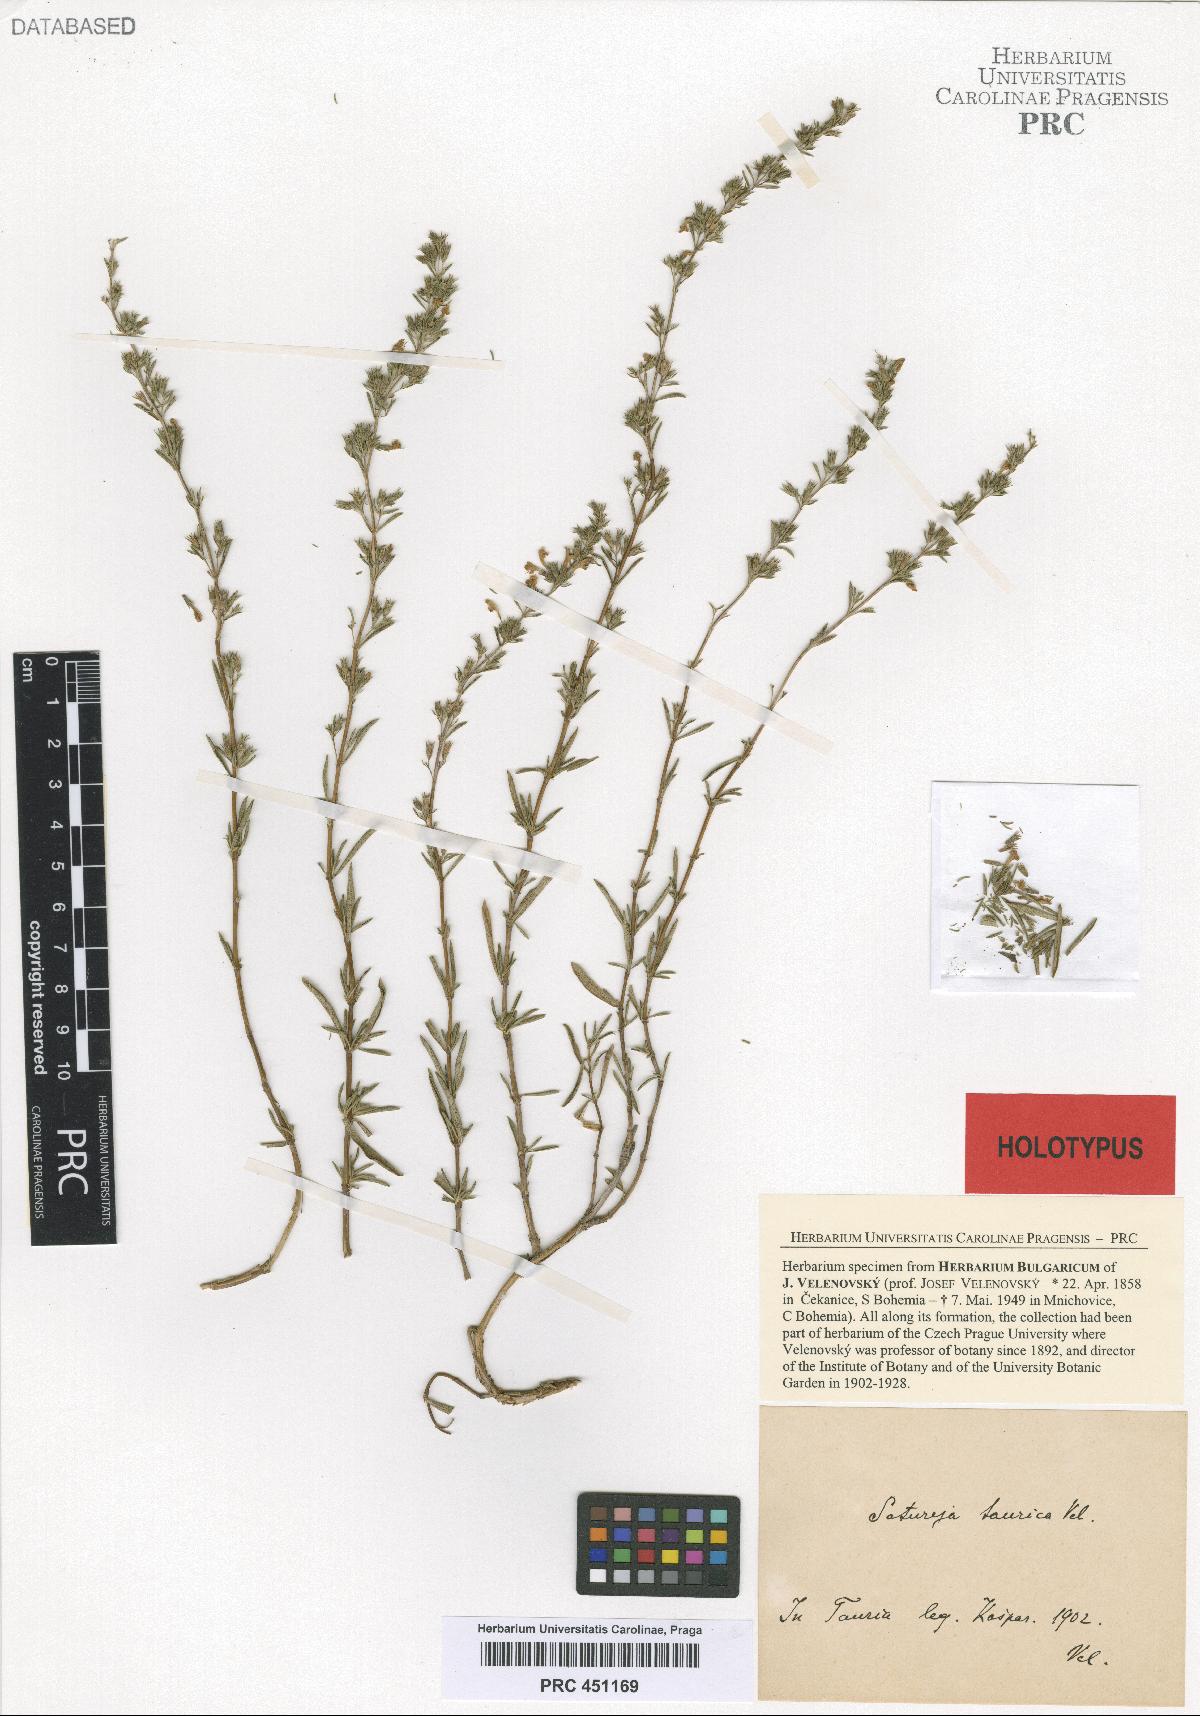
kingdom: Plantae
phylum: Tracheophyta
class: Magnoliopsida
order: Lamiales
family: Lamiaceae
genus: Satureja
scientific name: Satureja taurica
